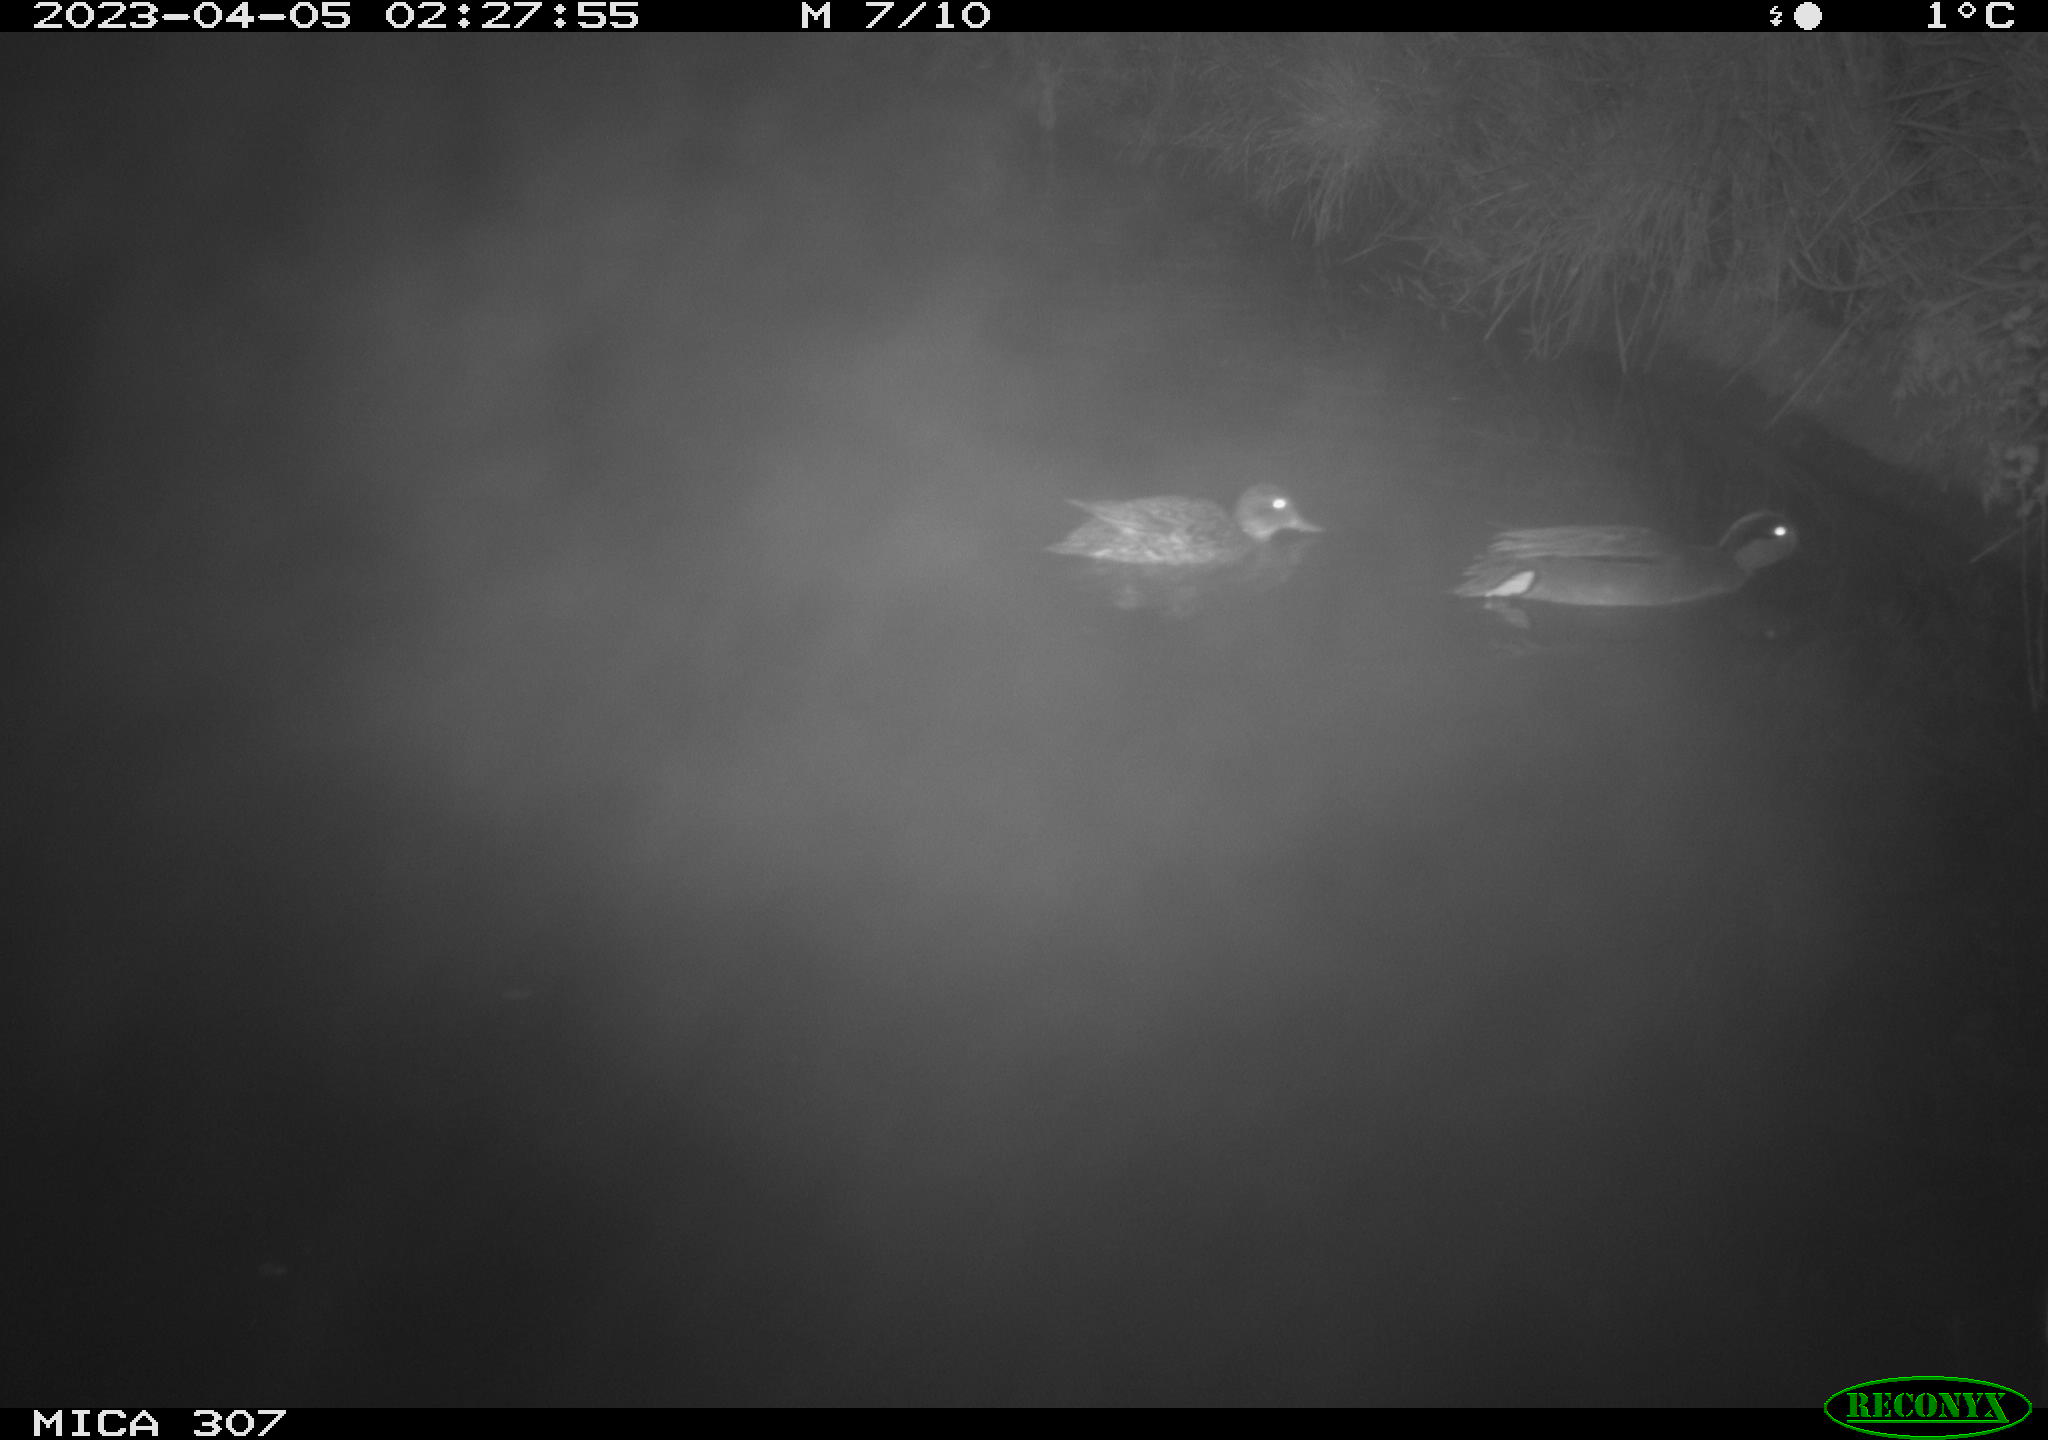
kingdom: Animalia
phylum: Chordata
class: Mammalia
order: Rodentia
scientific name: Rodentia
